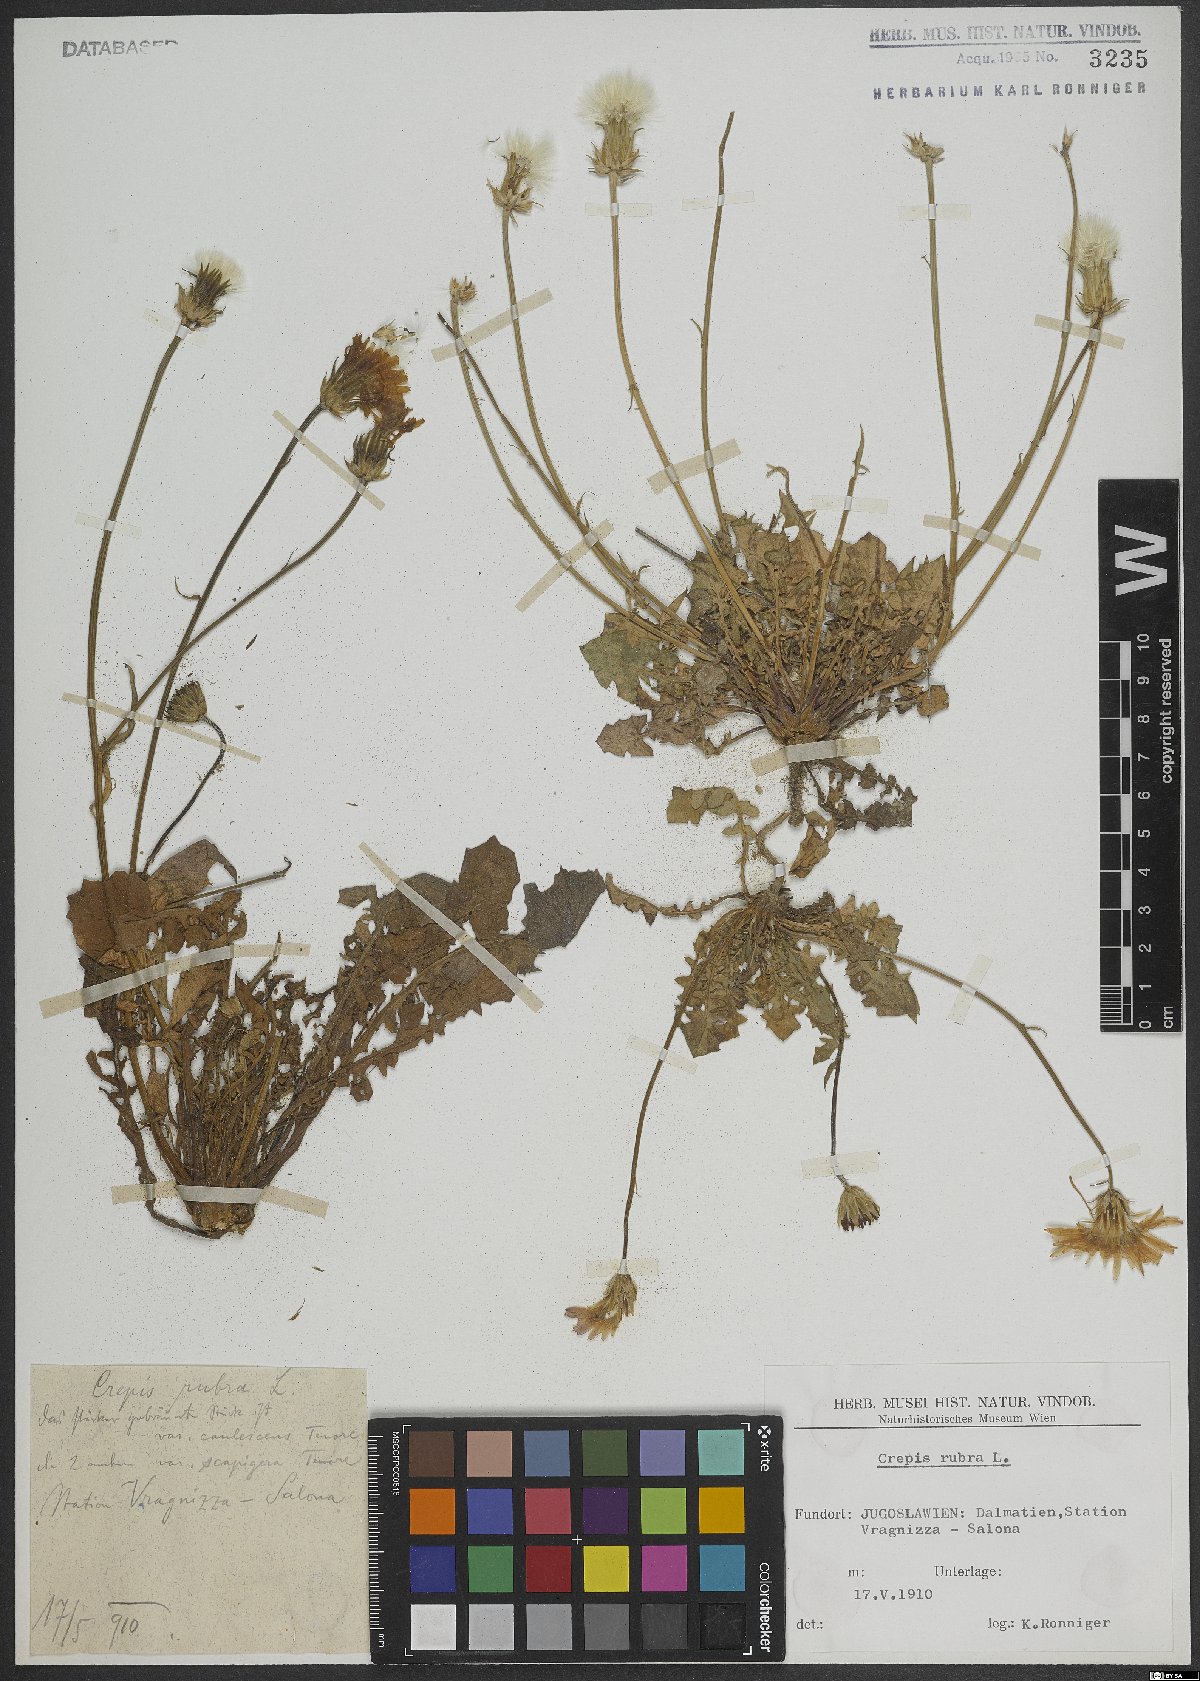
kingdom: Plantae
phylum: Tracheophyta
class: Magnoliopsida
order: Asterales
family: Asteraceae
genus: Crepis
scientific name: Crepis rubra
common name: Pink hawk's-beard
